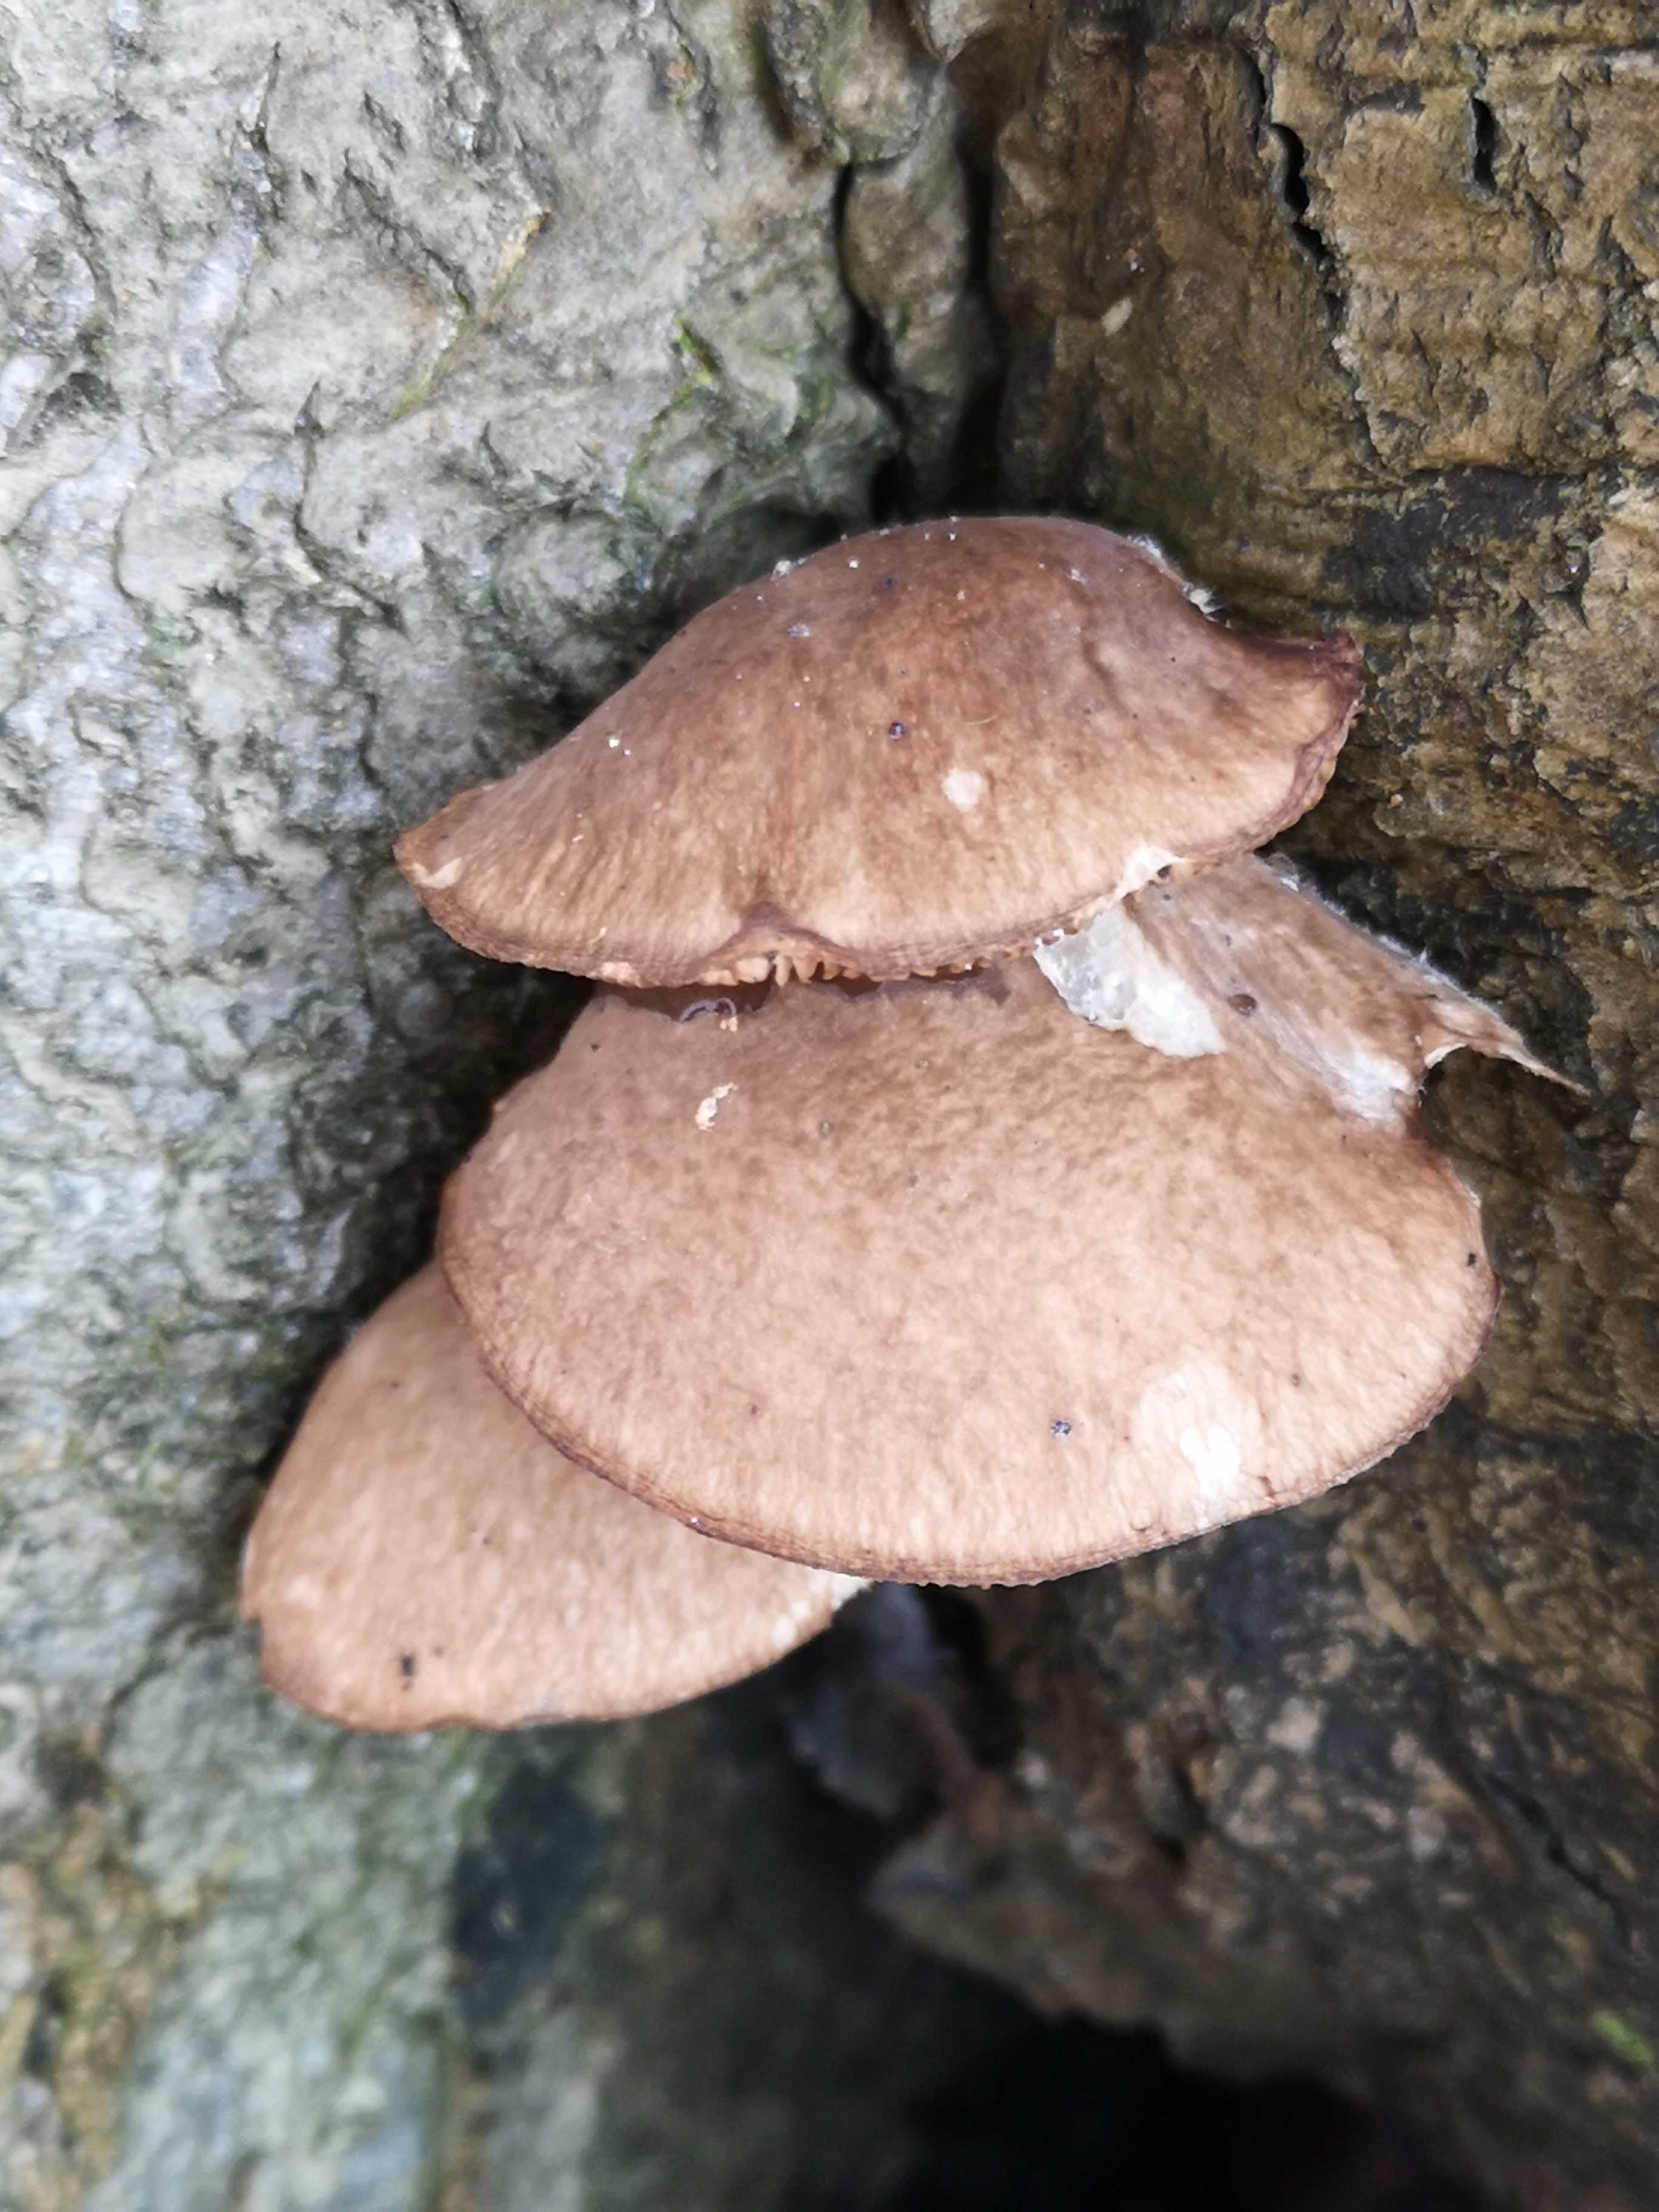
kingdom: Fungi
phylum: Basidiomycota
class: Agaricomycetes
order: Agaricales
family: Pleurotaceae
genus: Pleurotus
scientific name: Pleurotus
